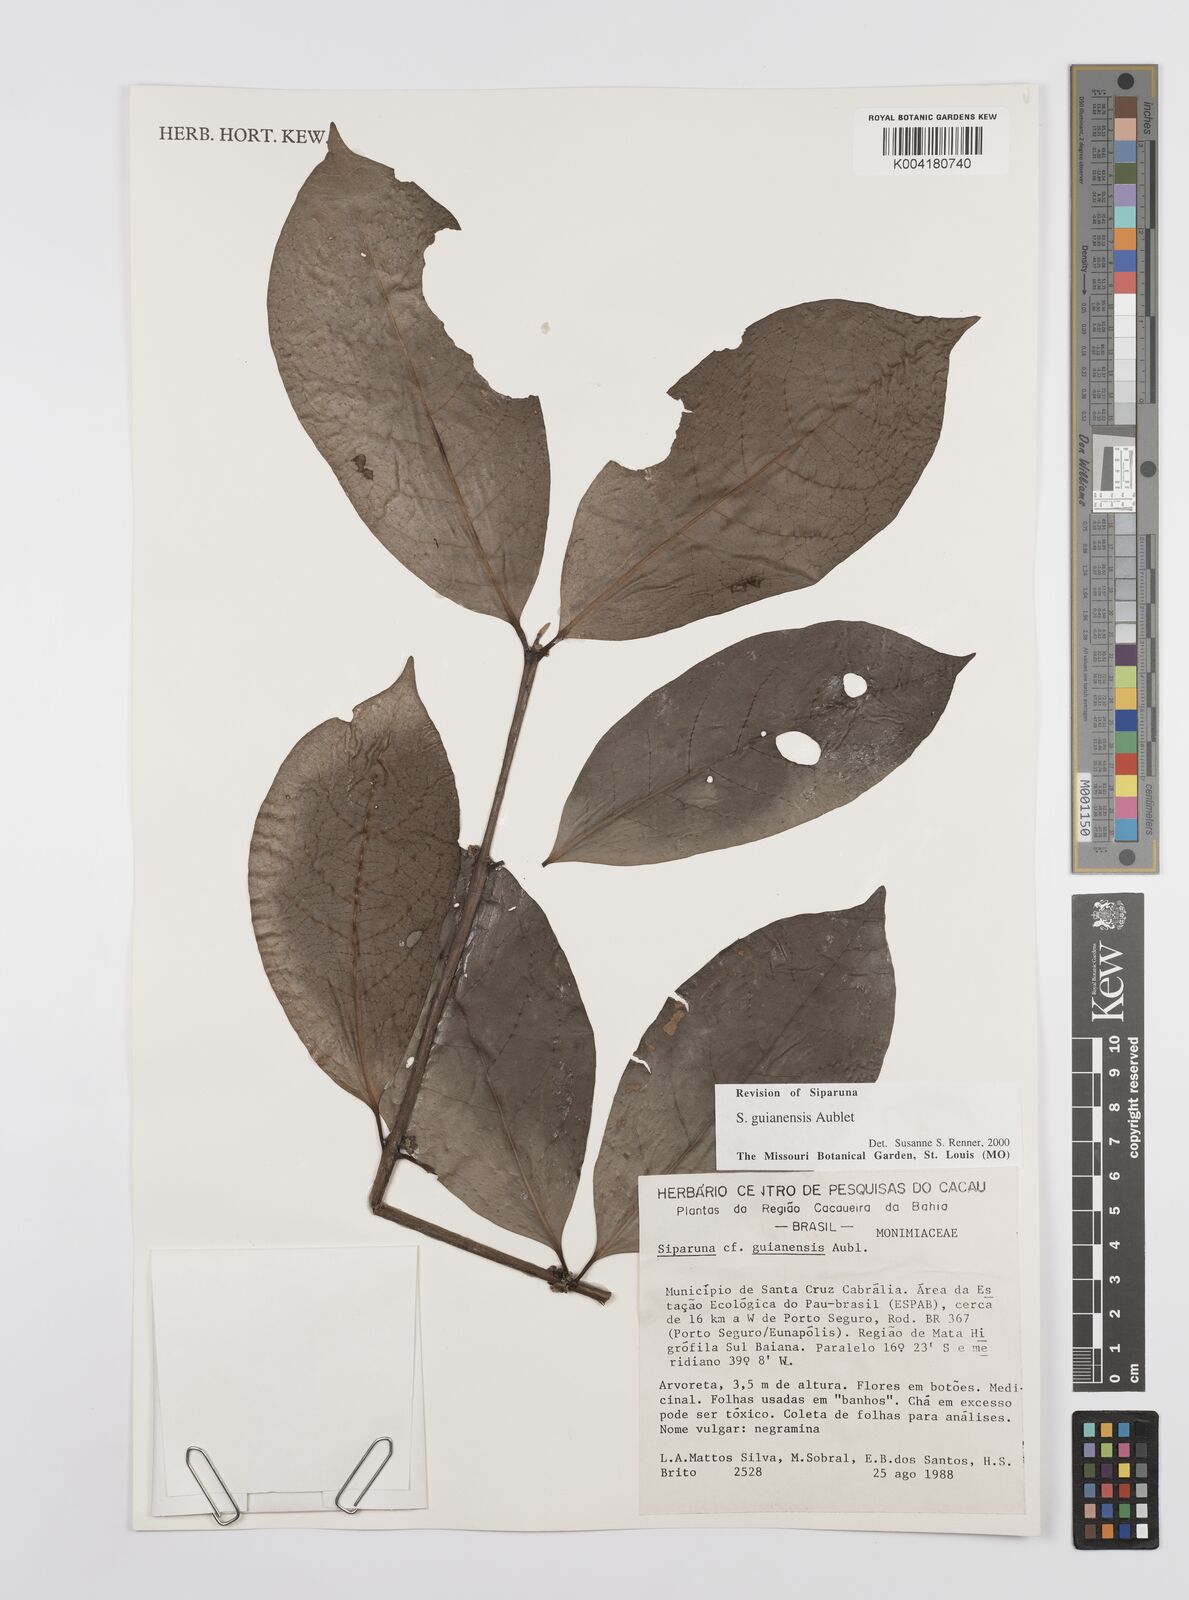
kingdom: Plantae
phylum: Tracheophyta
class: Magnoliopsida
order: Laurales
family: Siparunaceae
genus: Siparuna
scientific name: Siparuna guianensis
